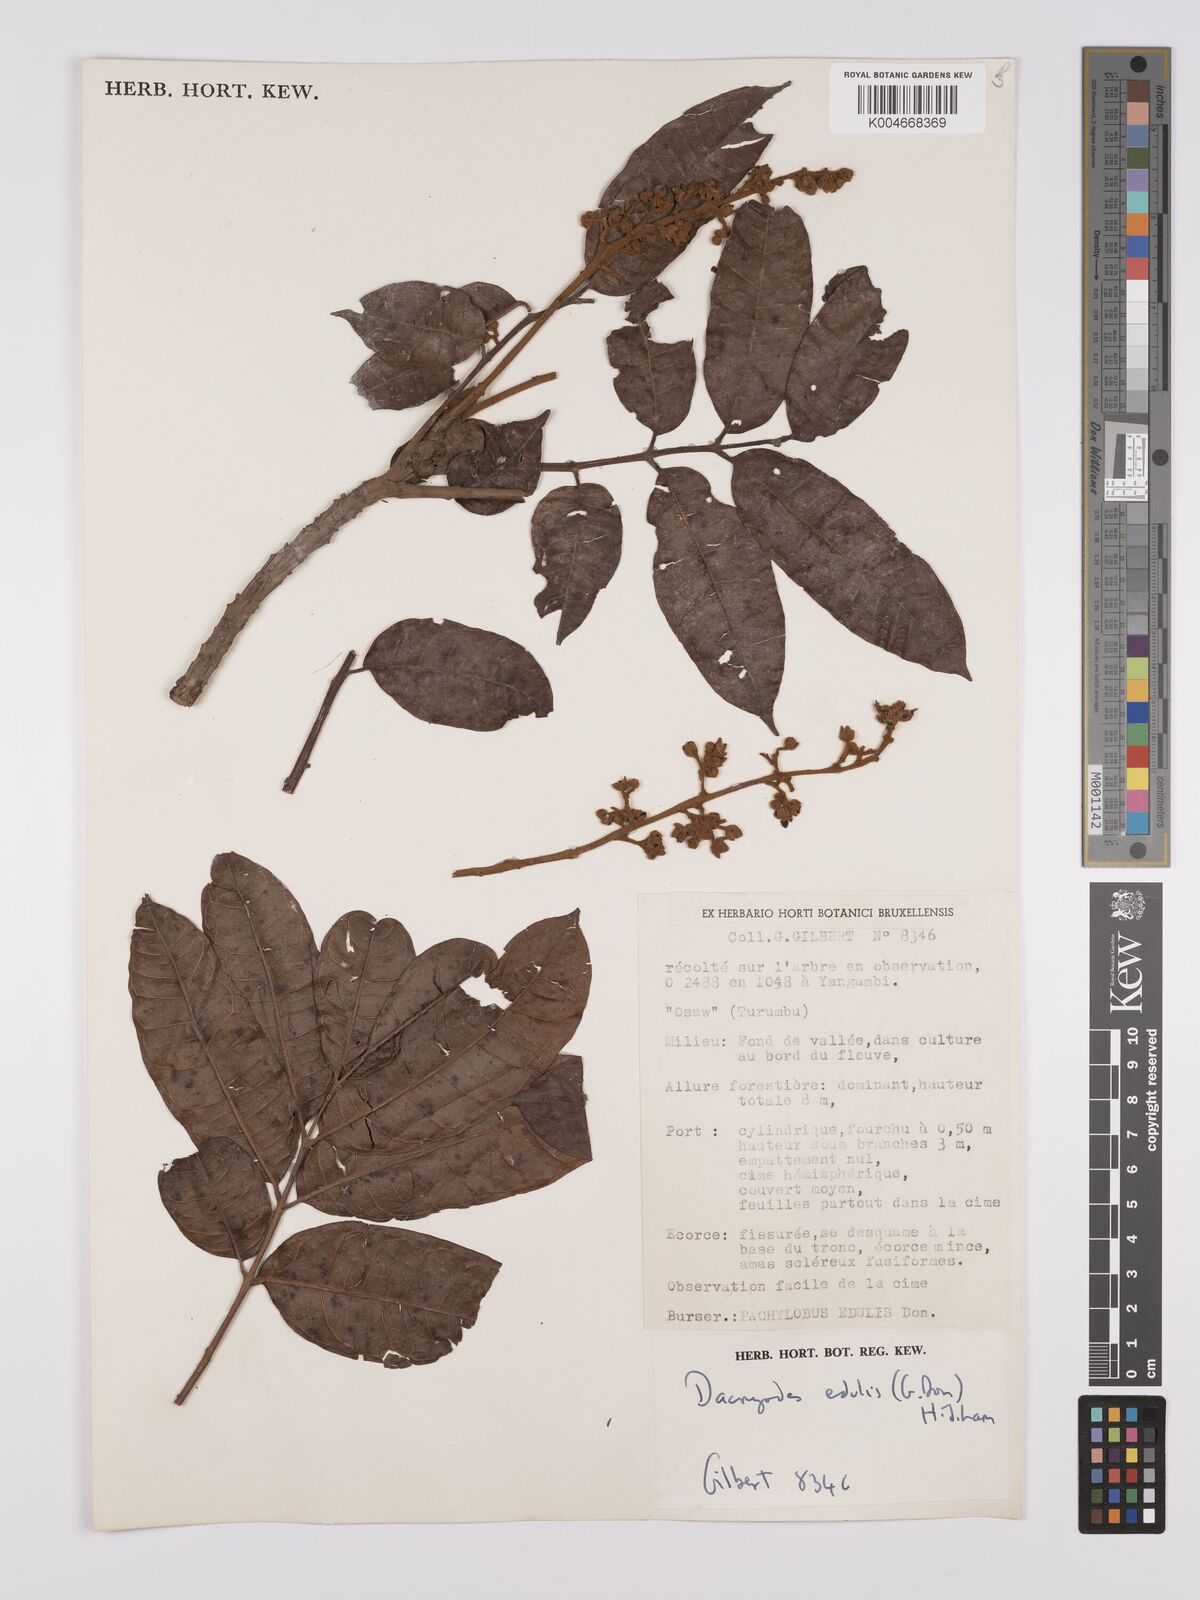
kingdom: Plantae
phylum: Tracheophyta
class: Magnoliopsida
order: Sapindales
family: Burseraceae
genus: Pachylobus
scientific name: Pachylobus edulis
